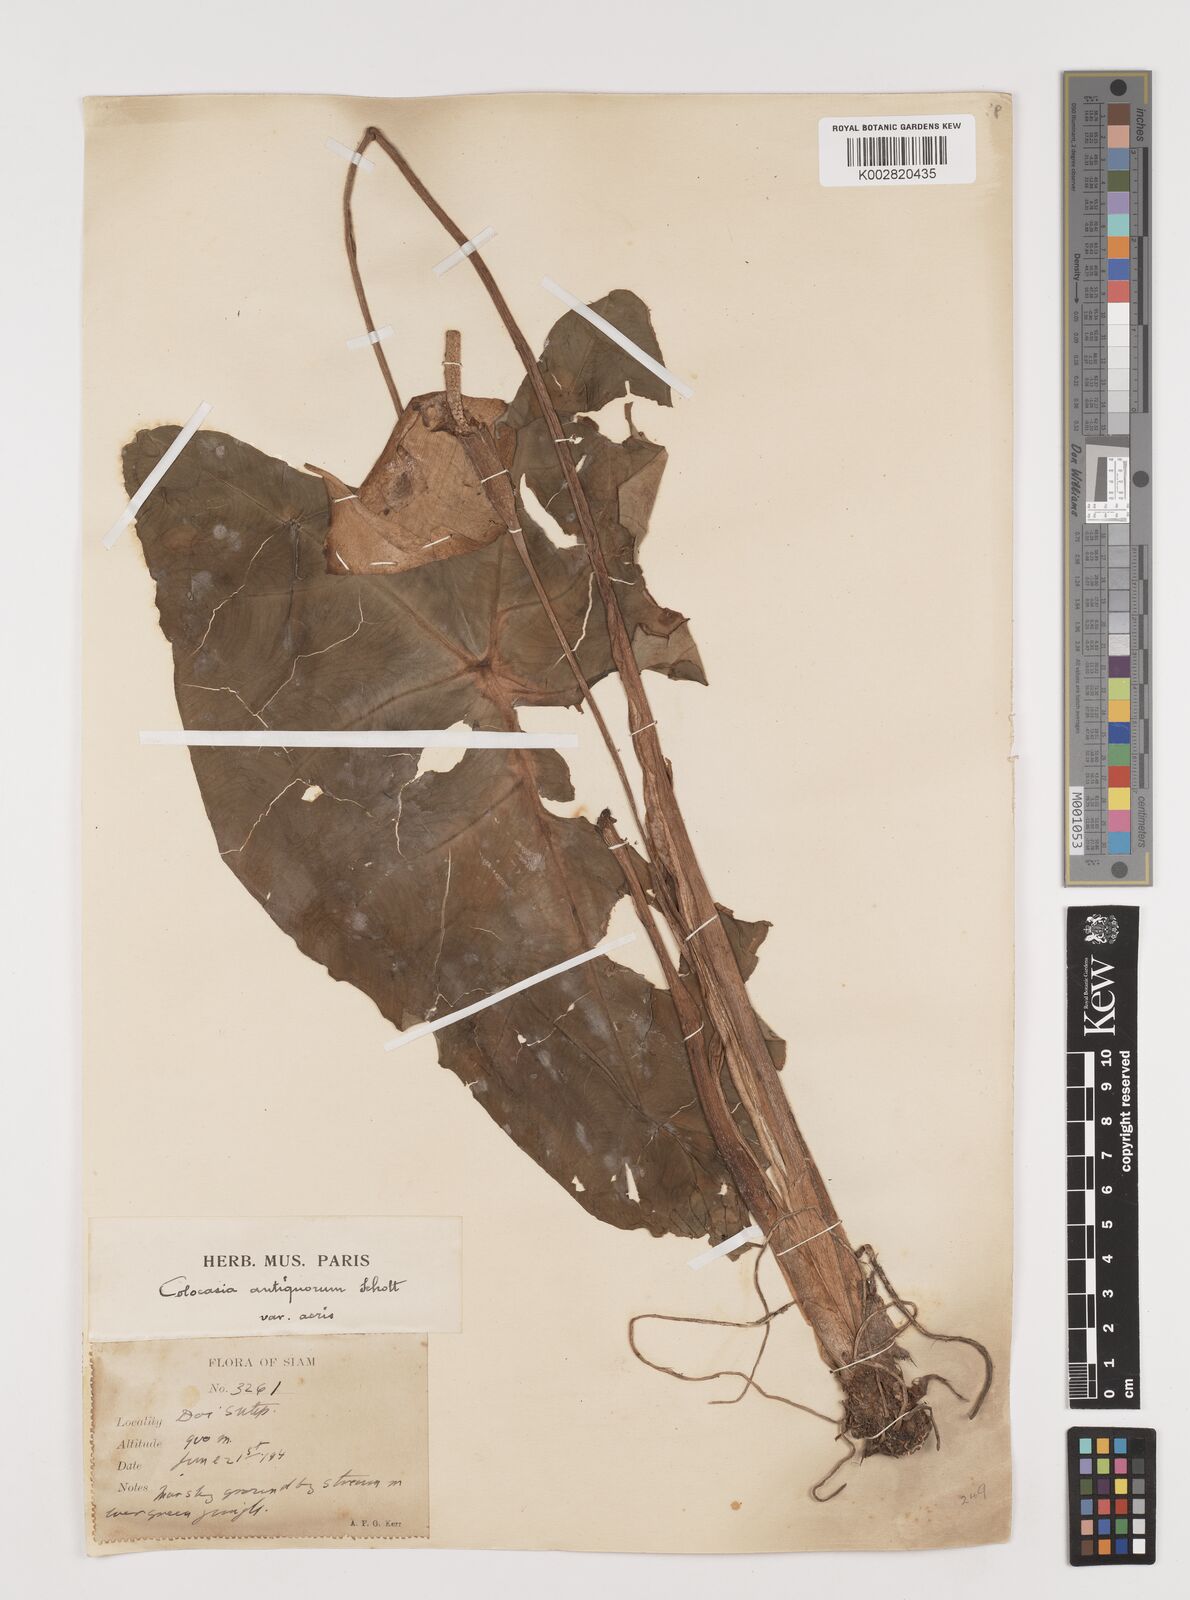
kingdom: Plantae
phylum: Tracheophyta
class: Liliopsida
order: Alismatales
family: Araceae
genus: Colocasia
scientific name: Colocasia esculenta
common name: Taro
